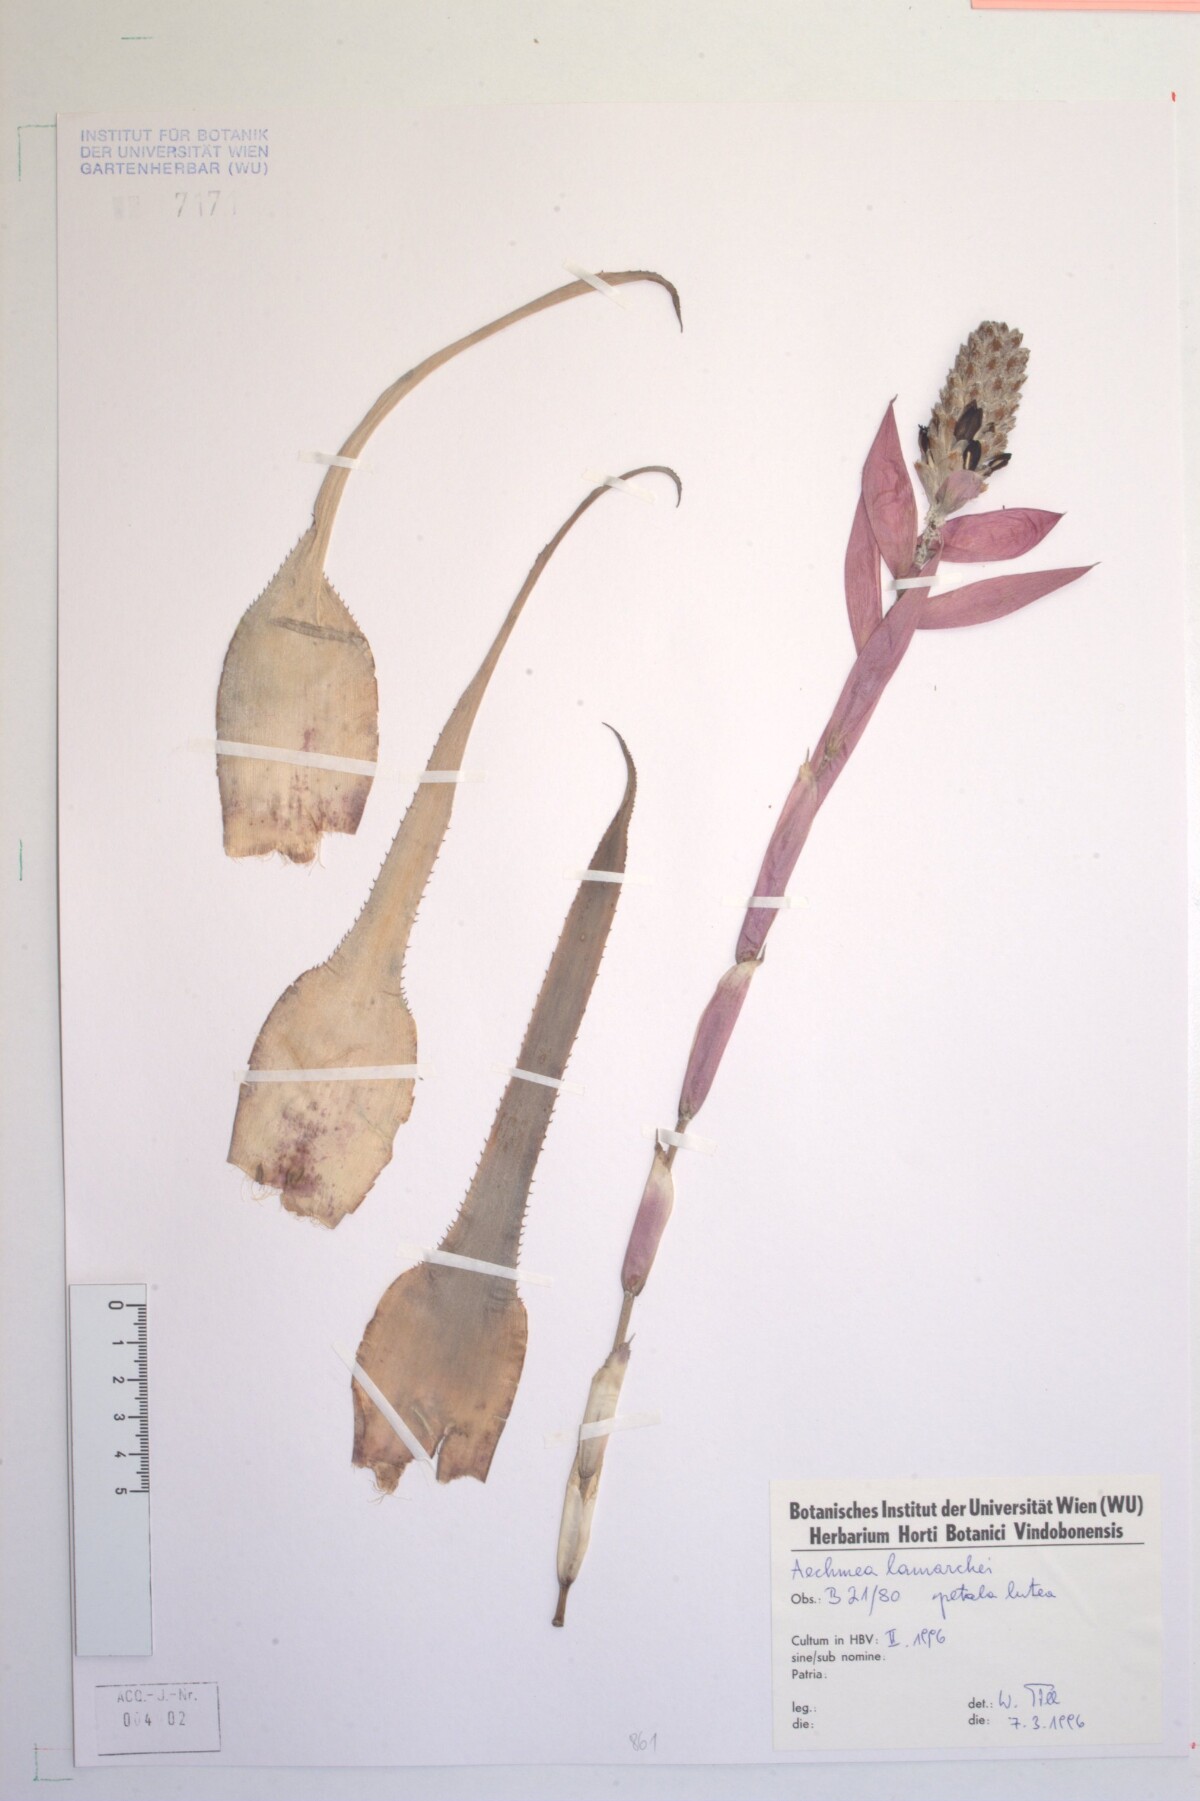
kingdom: Plantae
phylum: Tracheophyta
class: Liliopsida
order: Poales
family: Bromeliaceae
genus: Aechmea
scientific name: Aechmea lamarchei
